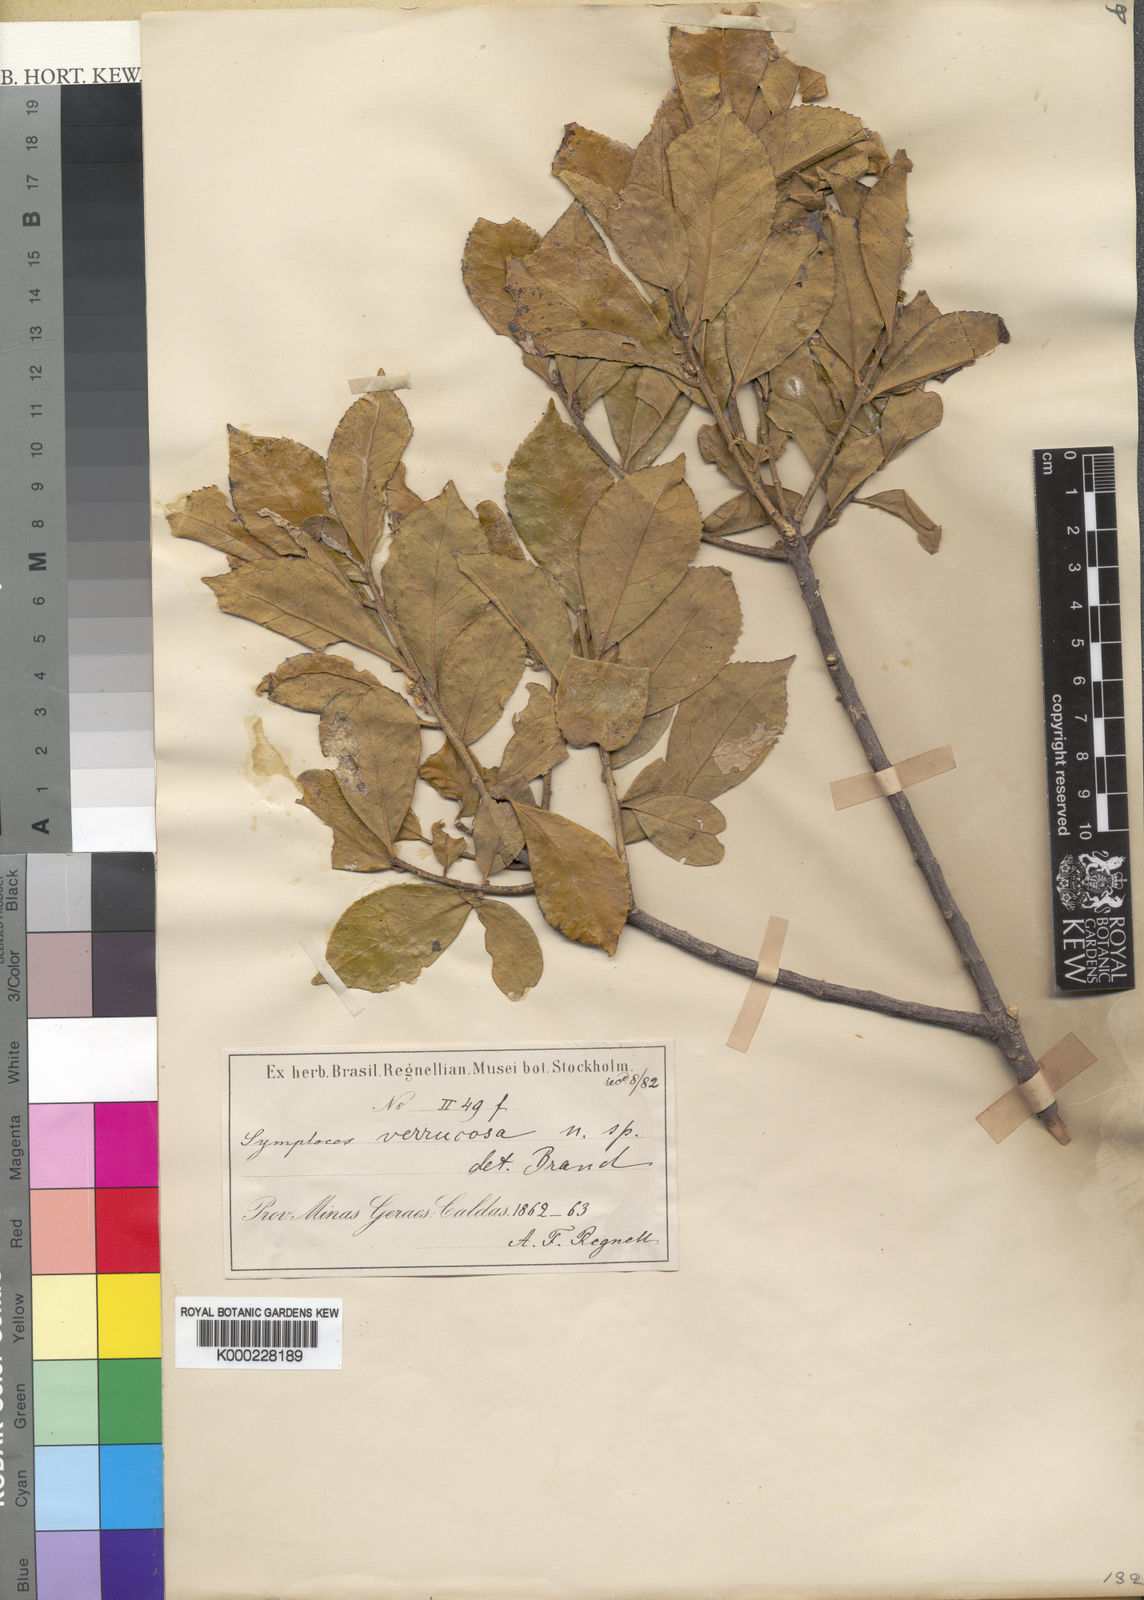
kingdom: Plantae
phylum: Tracheophyta
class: Magnoliopsida
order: Ericales
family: Symplocaceae
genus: Symplocos
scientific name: Symplocos celastrinea
